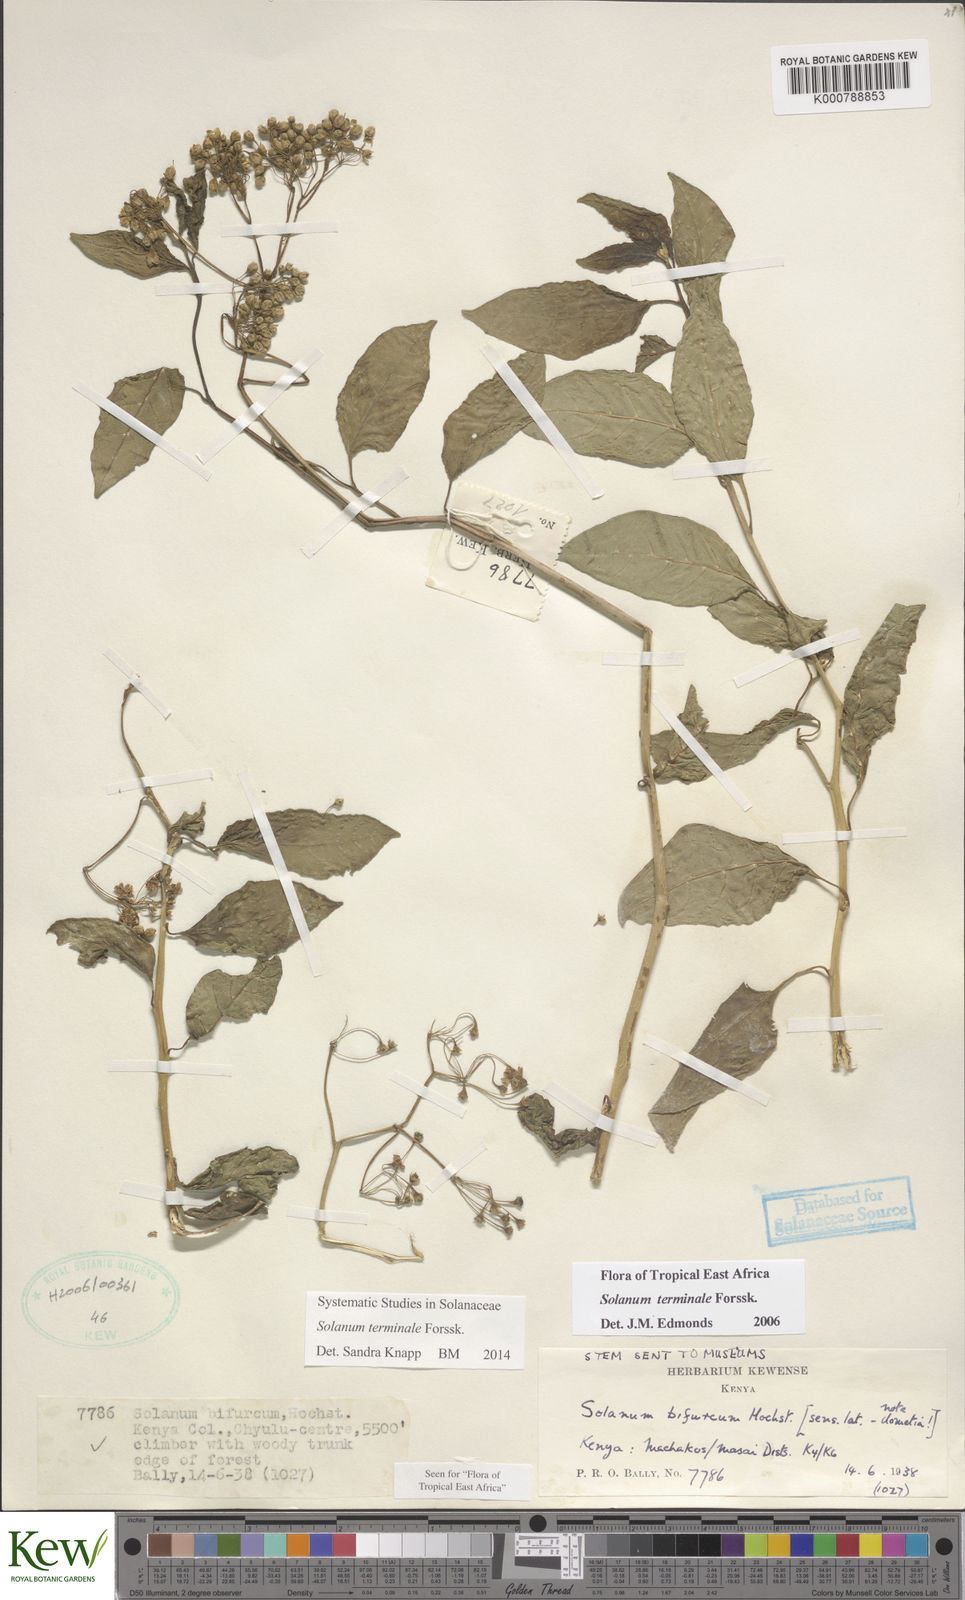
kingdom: Plantae
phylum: Tracheophyta
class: Magnoliopsida
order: Solanales
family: Solanaceae
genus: Solanum
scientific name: Solanum terminale
